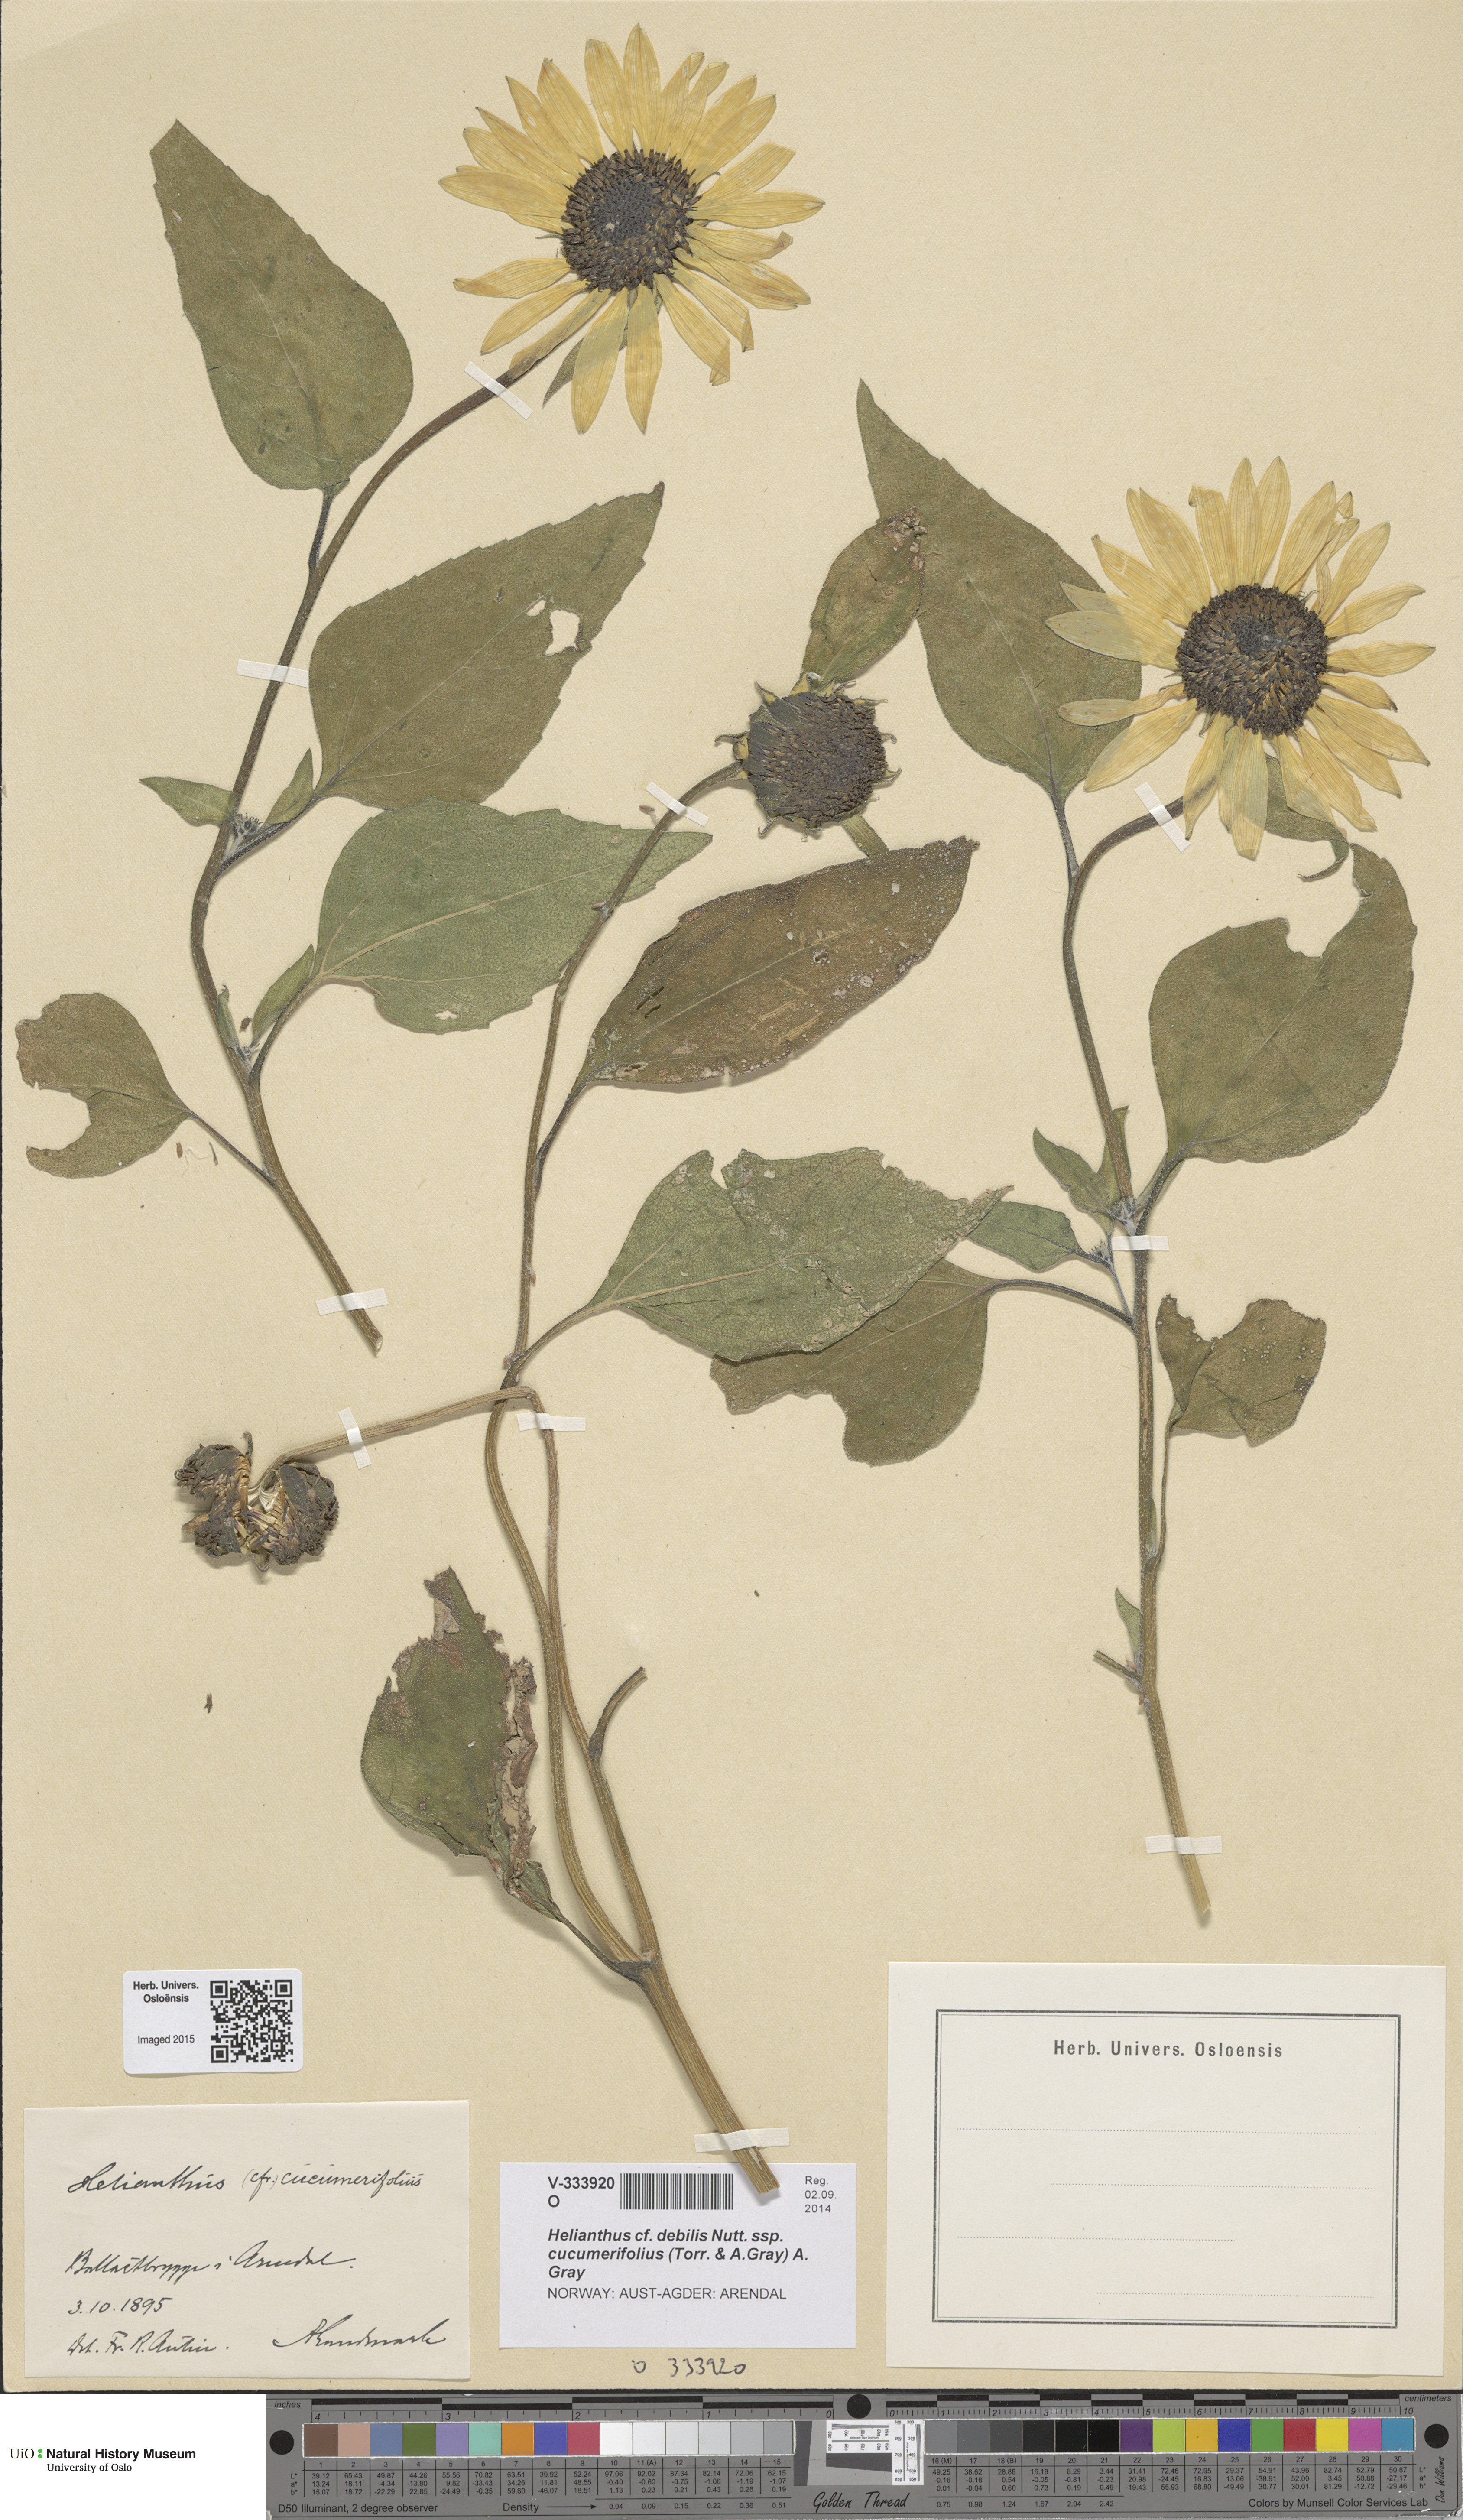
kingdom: Plantae
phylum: Tracheophyta
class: Magnoliopsida
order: Asterales
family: Asteraceae
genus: Helianthus
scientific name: Helianthus debilis
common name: Weak sunflower
